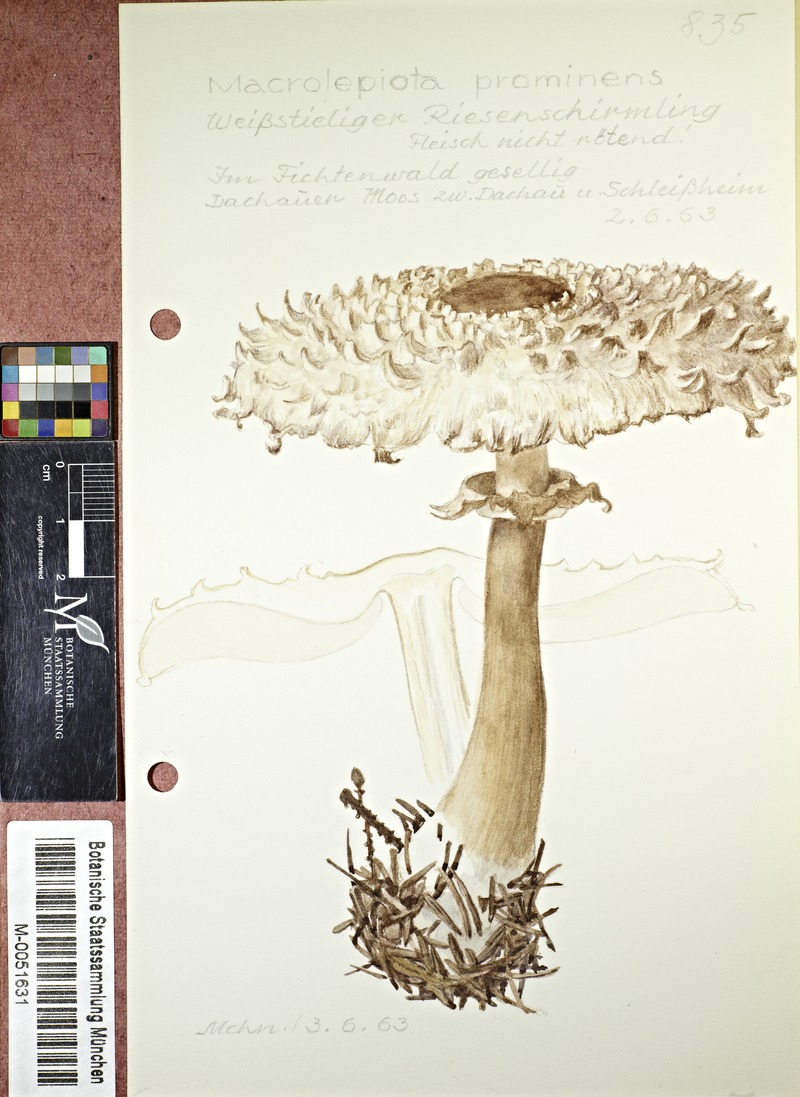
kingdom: Fungi
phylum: Basidiomycota
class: Agaricomycetes
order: Agaricales
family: Agaricaceae
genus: Macrolepiota
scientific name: Macrolepiota prominens
